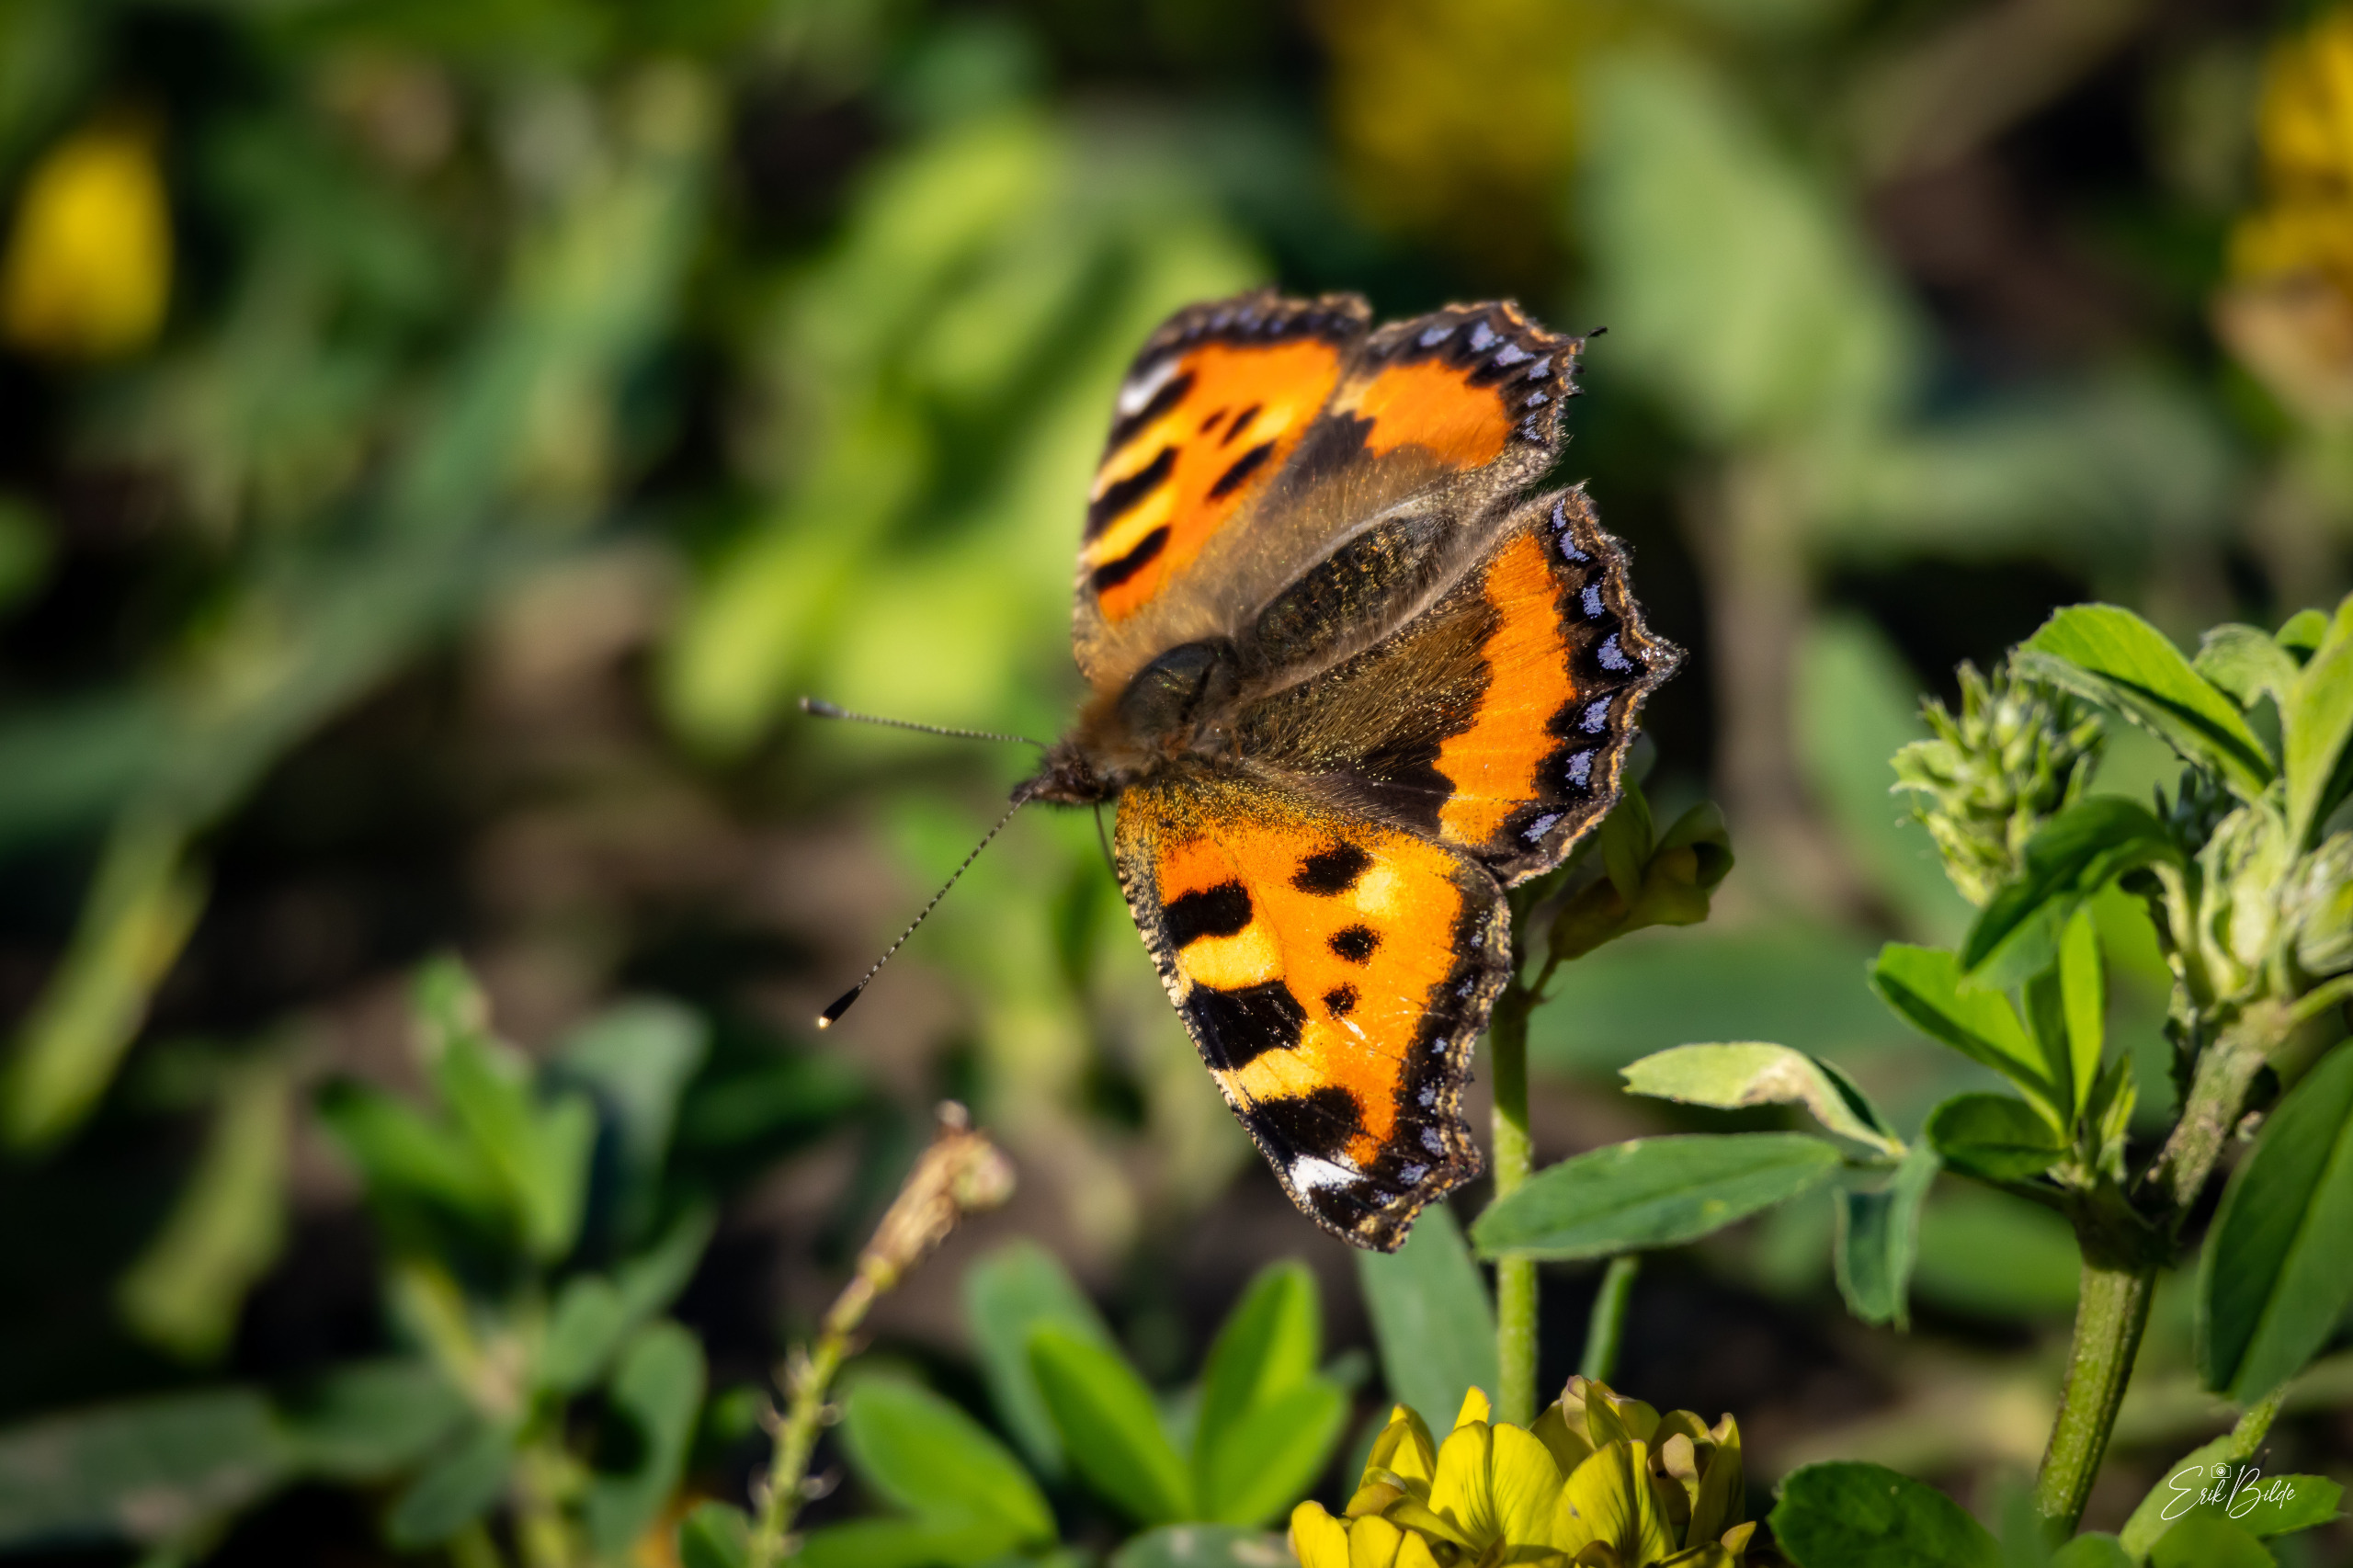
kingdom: Animalia
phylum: Arthropoda
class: Insecta
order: Lepidoptera
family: Nymphalidae
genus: Aglais
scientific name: Aglais urticae
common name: Nældens takvinge
